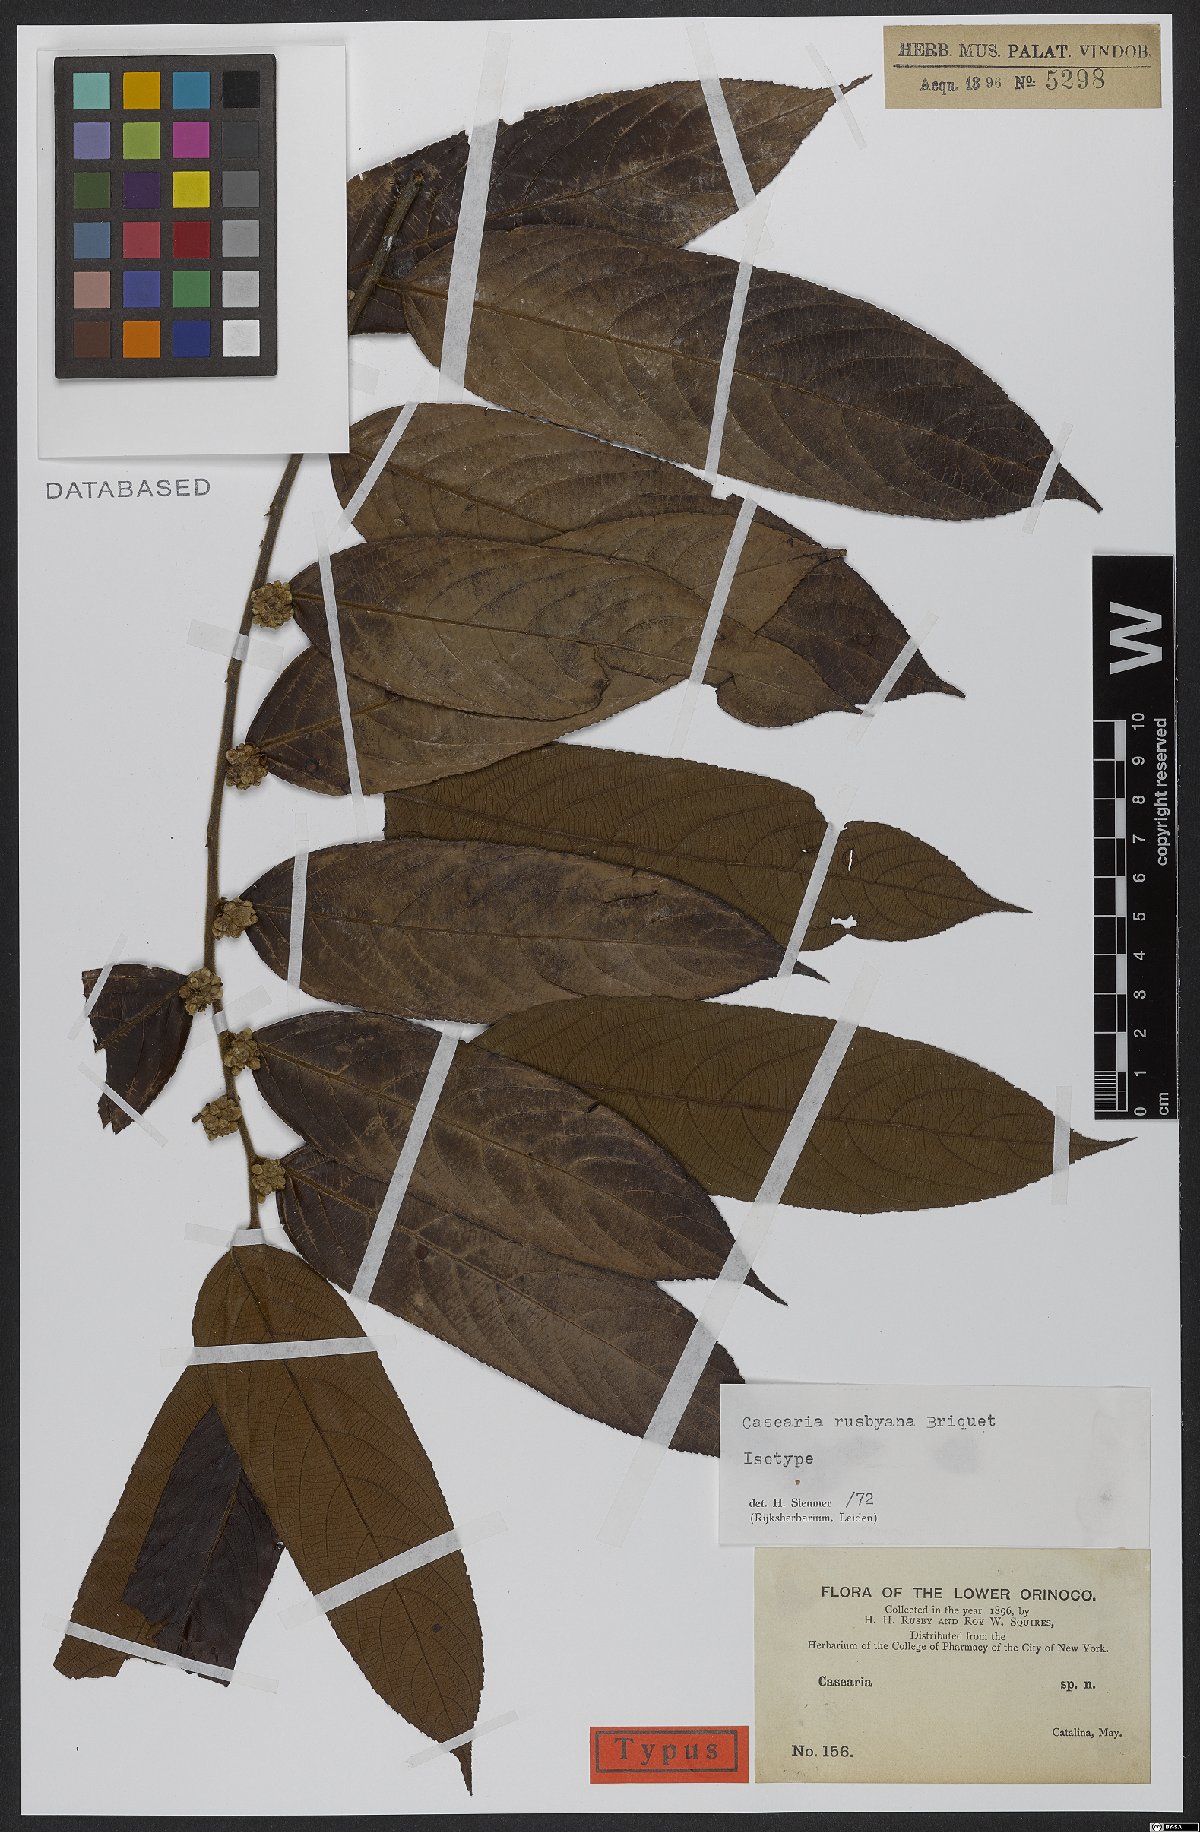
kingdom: Plantae
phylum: Tracheophyta
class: Magnoliopsida
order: Malpighiales
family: Salicaceae
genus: Casearia
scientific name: Casearia rusbyana
